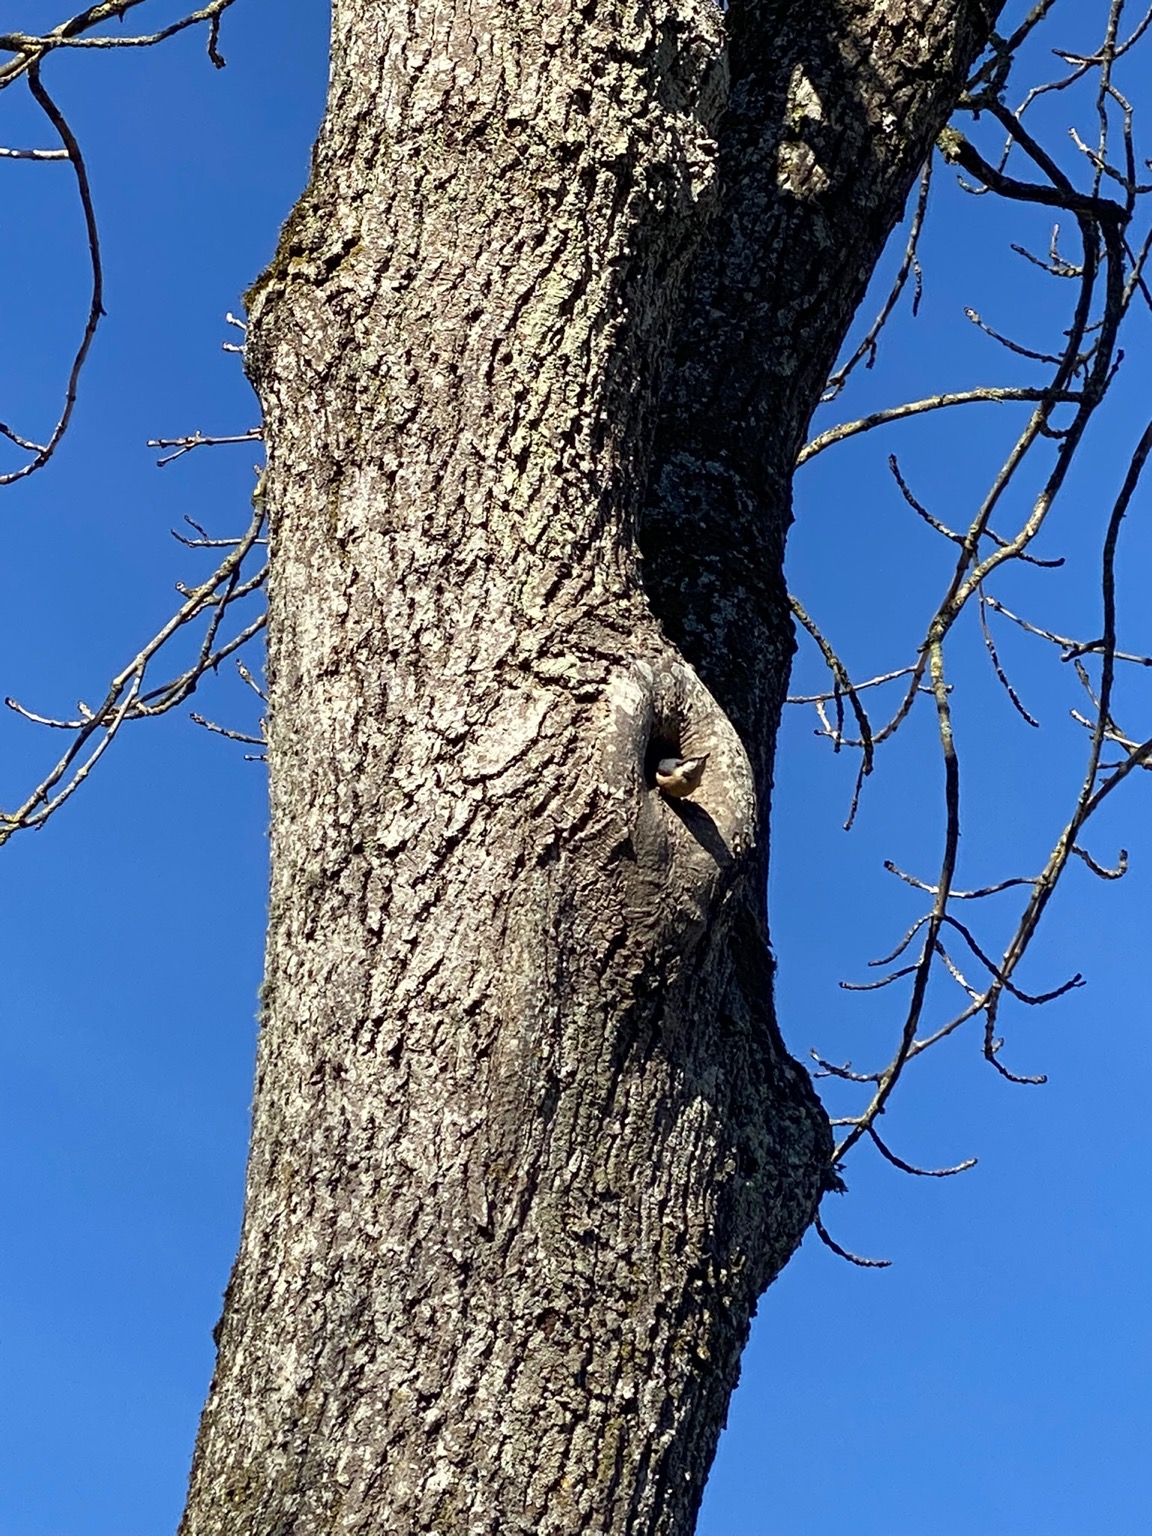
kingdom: Animalia
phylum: Chordata
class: Aves
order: Passeriformes
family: Sittidae
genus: Sitta
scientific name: Sitta europaea
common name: Spætmejse
